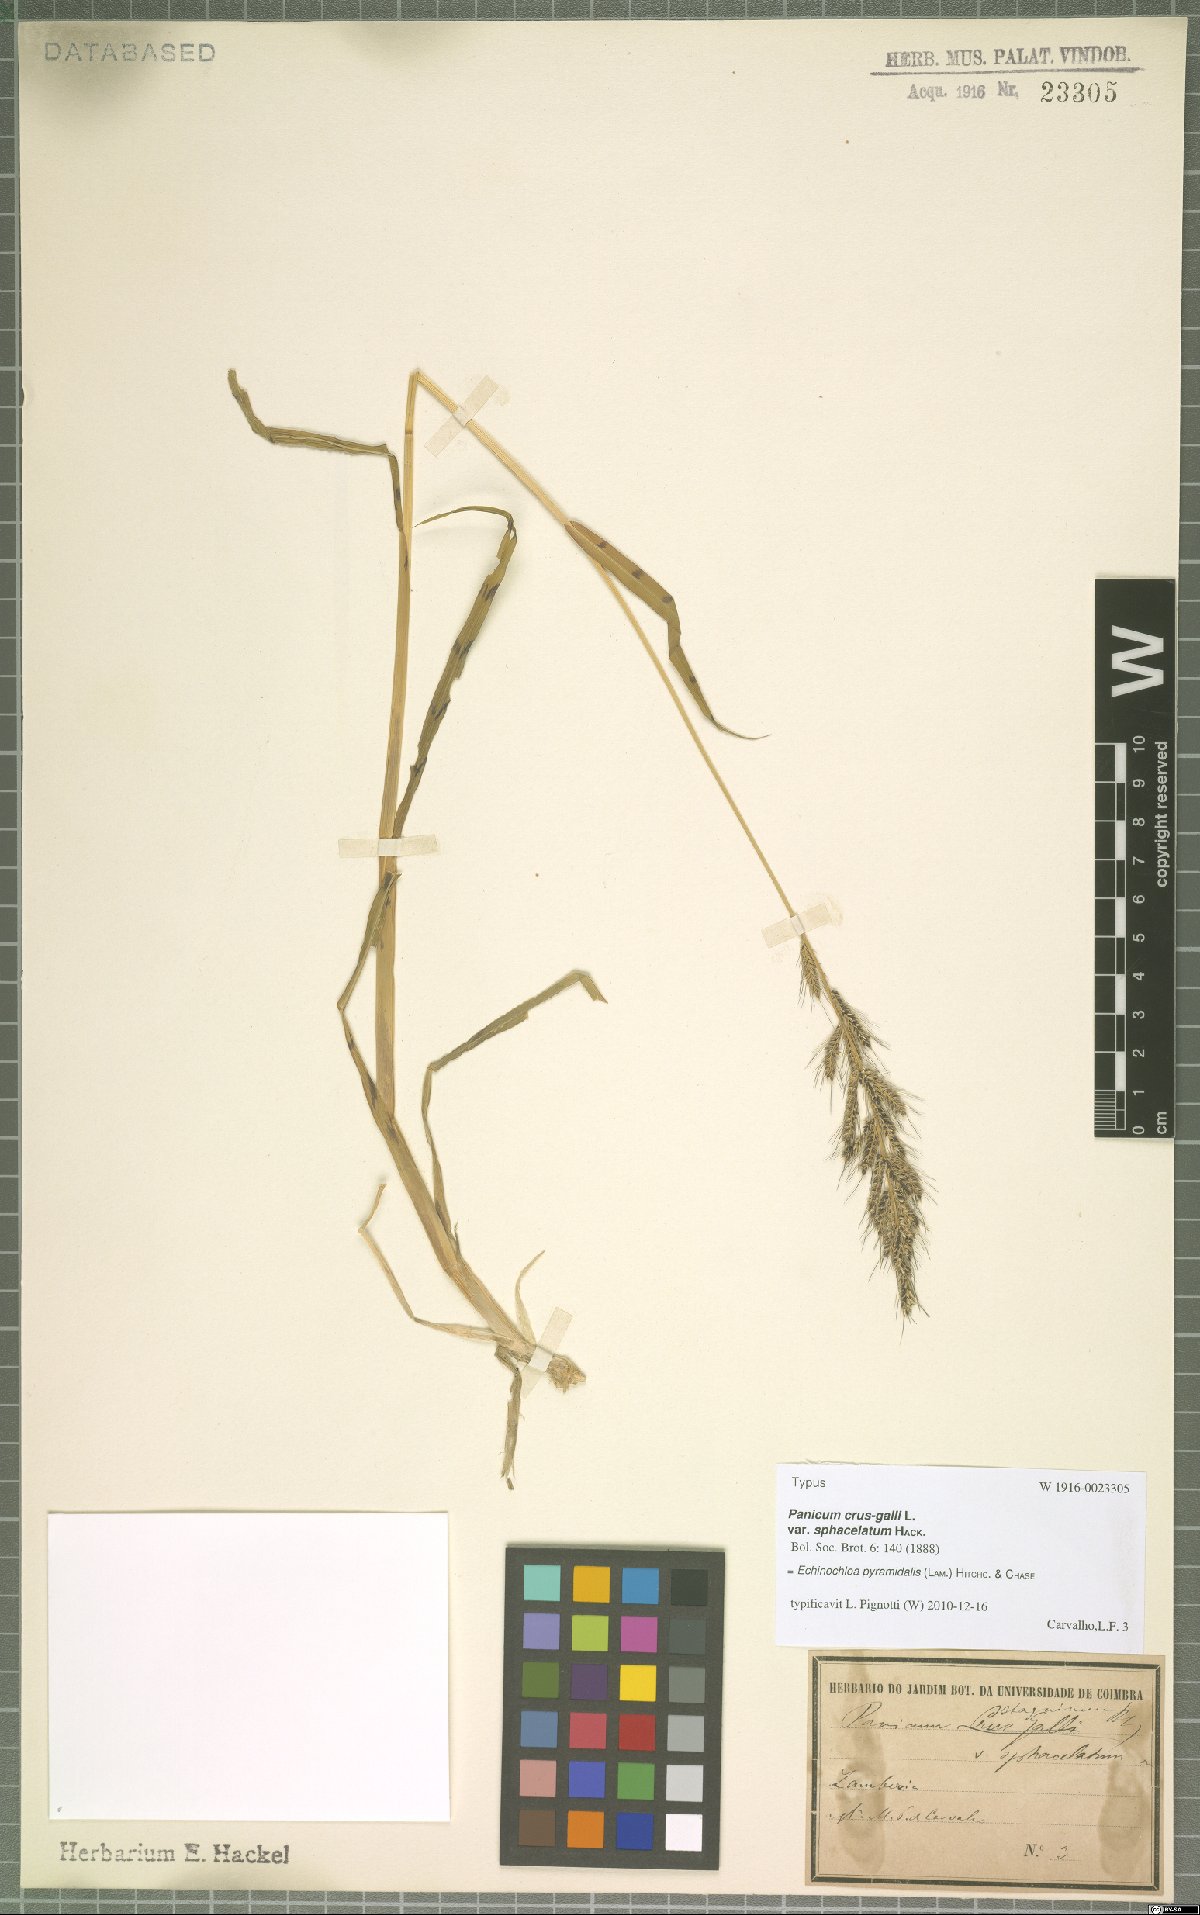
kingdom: Plantae
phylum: Tracheophyta
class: Liliopsida
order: Poales
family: Poaceae
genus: Echinochloa
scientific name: Echinochloa pyramidalis
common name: Antelope grass
